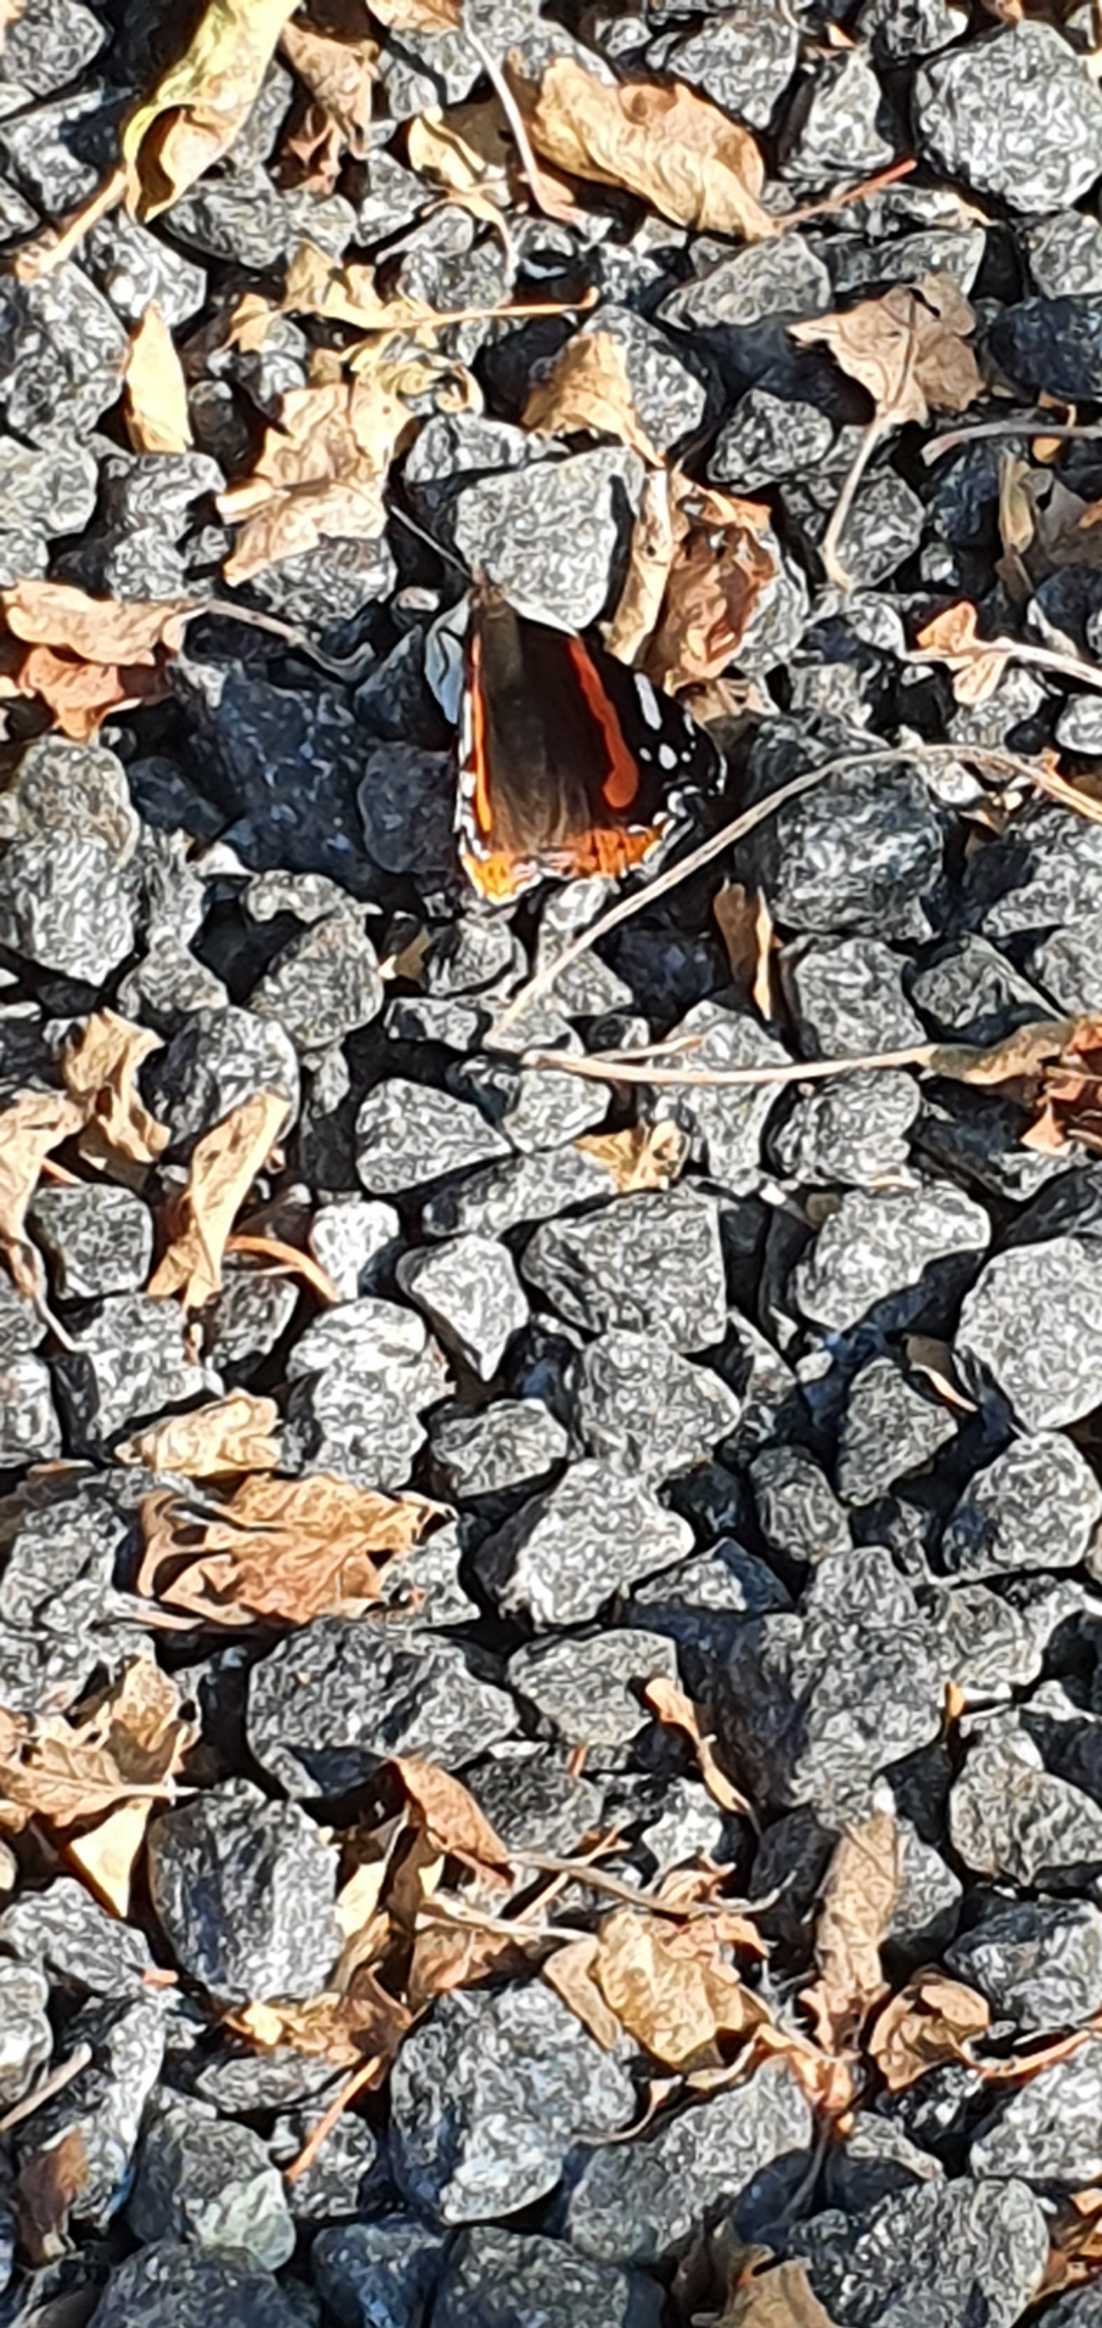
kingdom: Animalia
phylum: Arthropoda
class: Insecta
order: Lepidoptera
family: Nymphalidae
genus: Vanessa
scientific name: Vanessa atalanta
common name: Admiral
